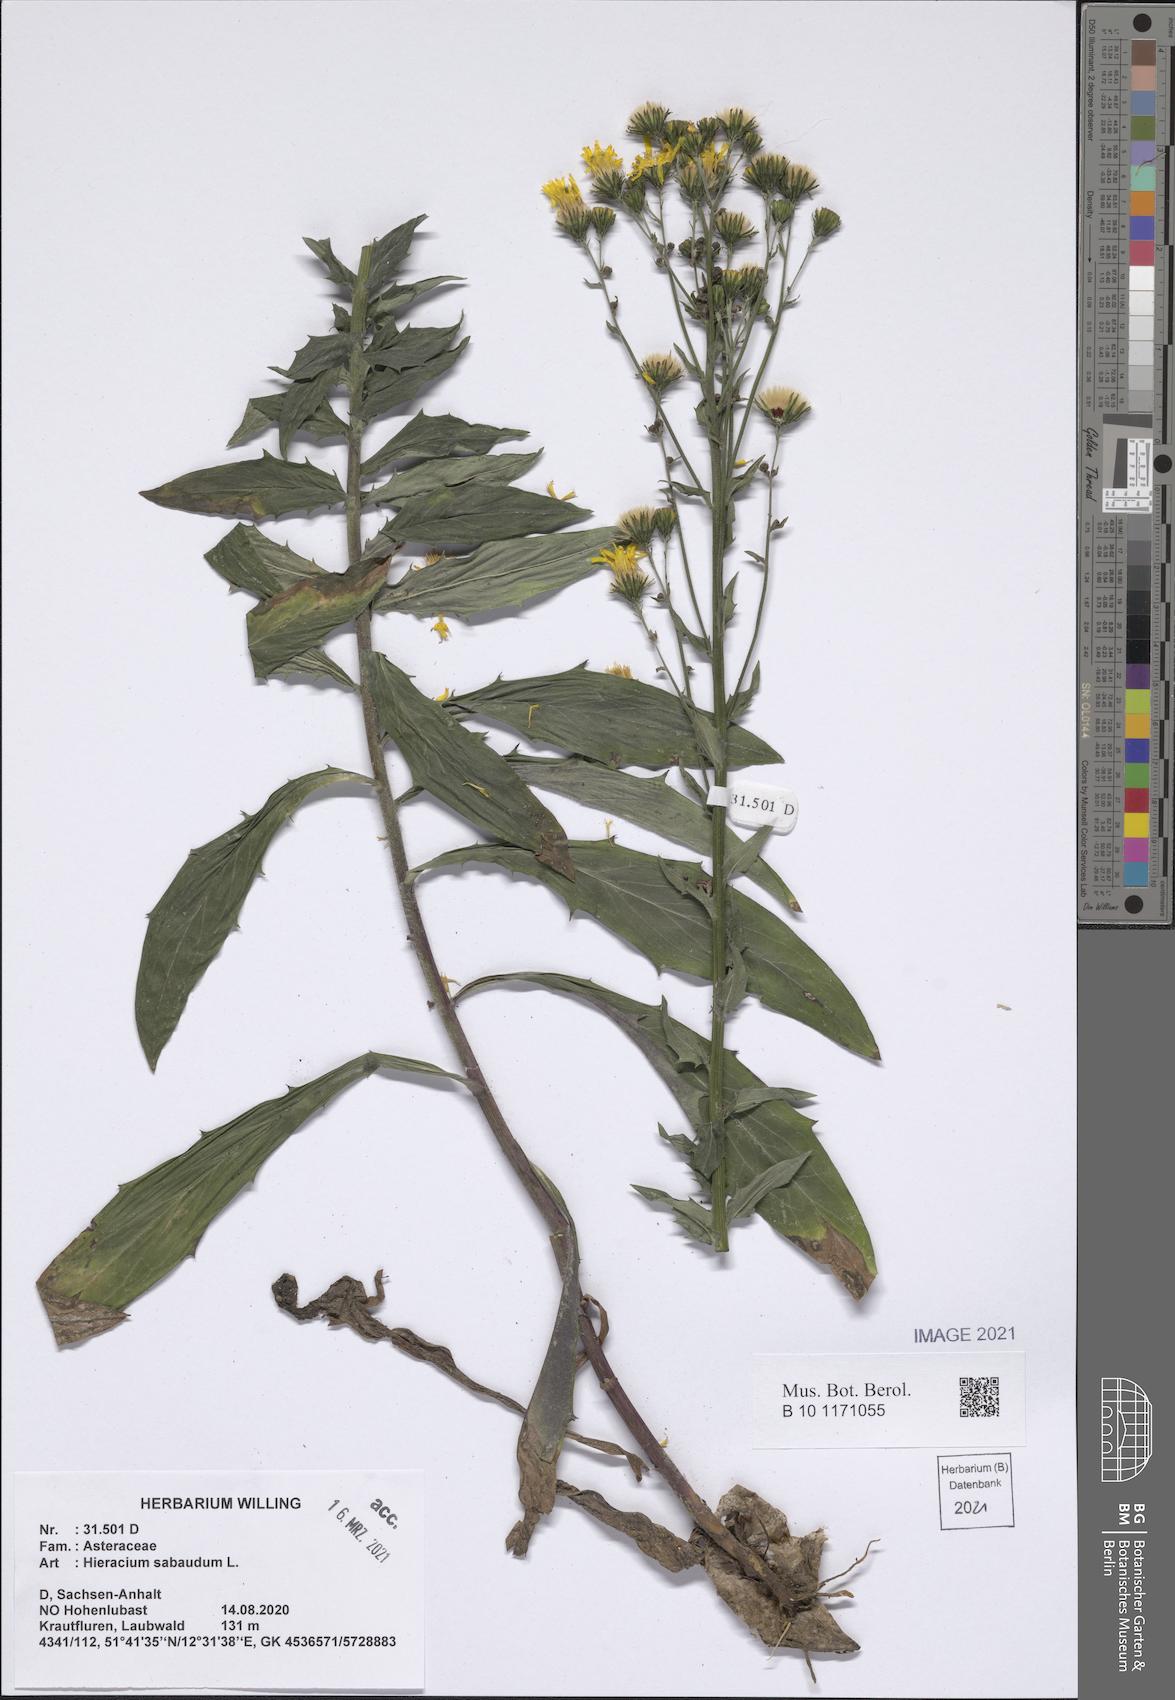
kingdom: Plantae
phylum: Tracheophyta
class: Magnoliopsida
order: Asterales
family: Asteraceae
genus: Hieracium
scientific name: Hieracium sabaudum
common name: New england hawkweed
